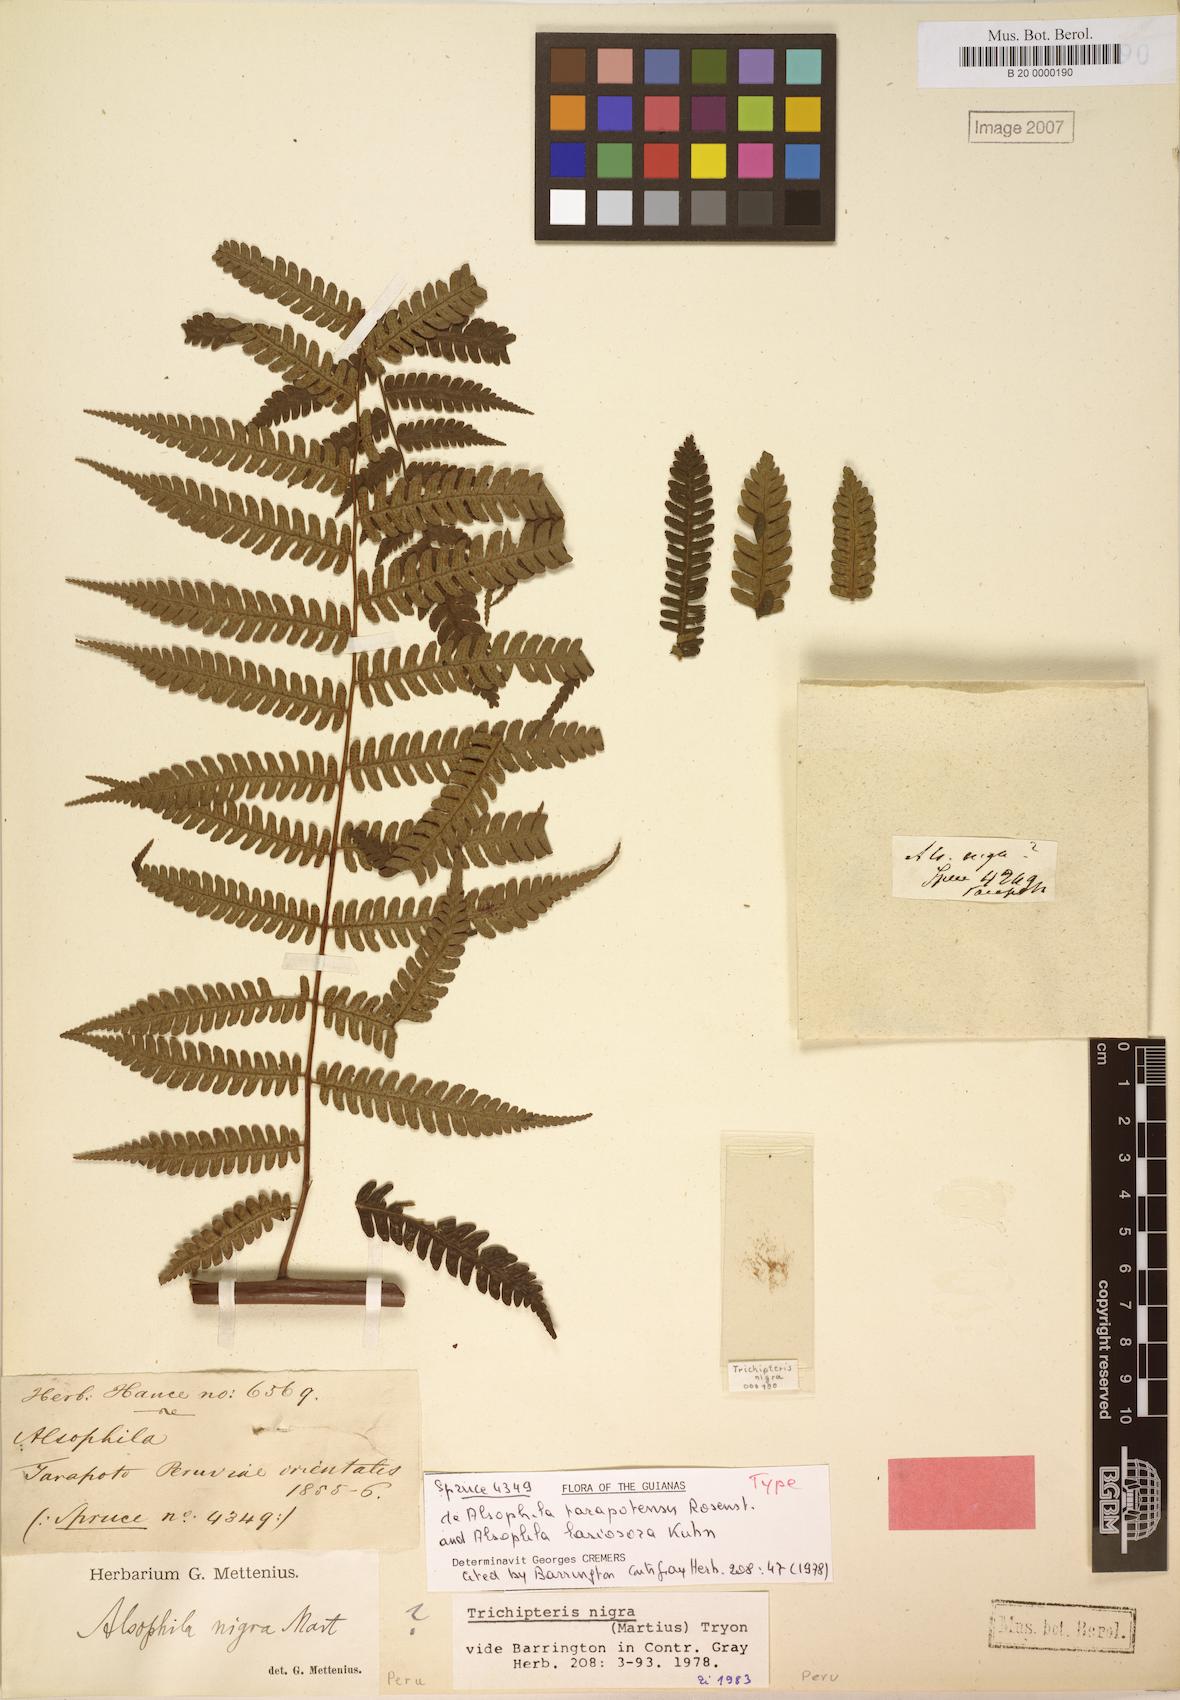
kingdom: Plantae
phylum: Tracheophyta
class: Polypodiopsida
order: Cyatheales
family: Cyatheaceae
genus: Cyathea
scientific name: Cyathea lasiosora
